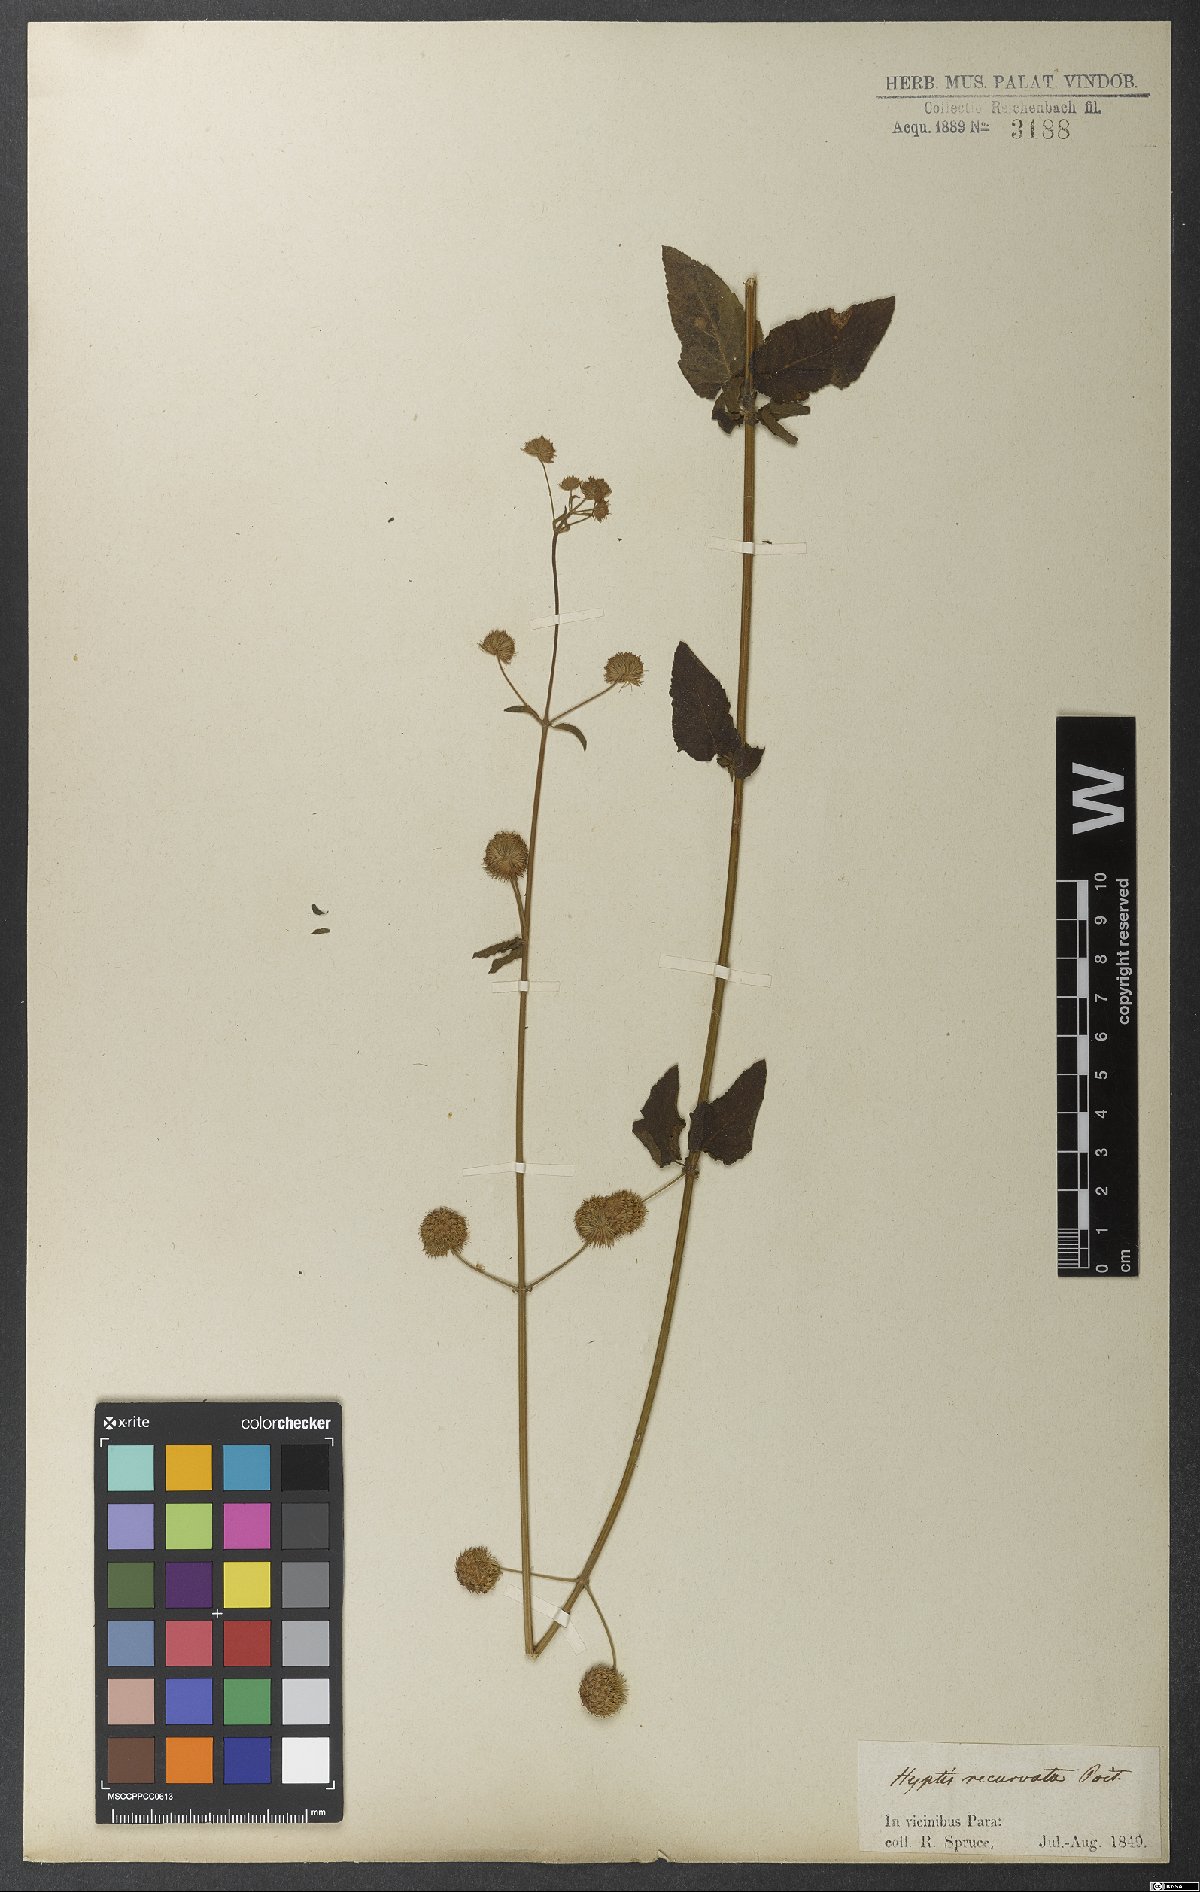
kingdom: Plantae
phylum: Tracheophyta
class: Magnoliopsida
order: Lamiales
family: Lamiaceae
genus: Hyptis
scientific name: Hyptis recurvata
